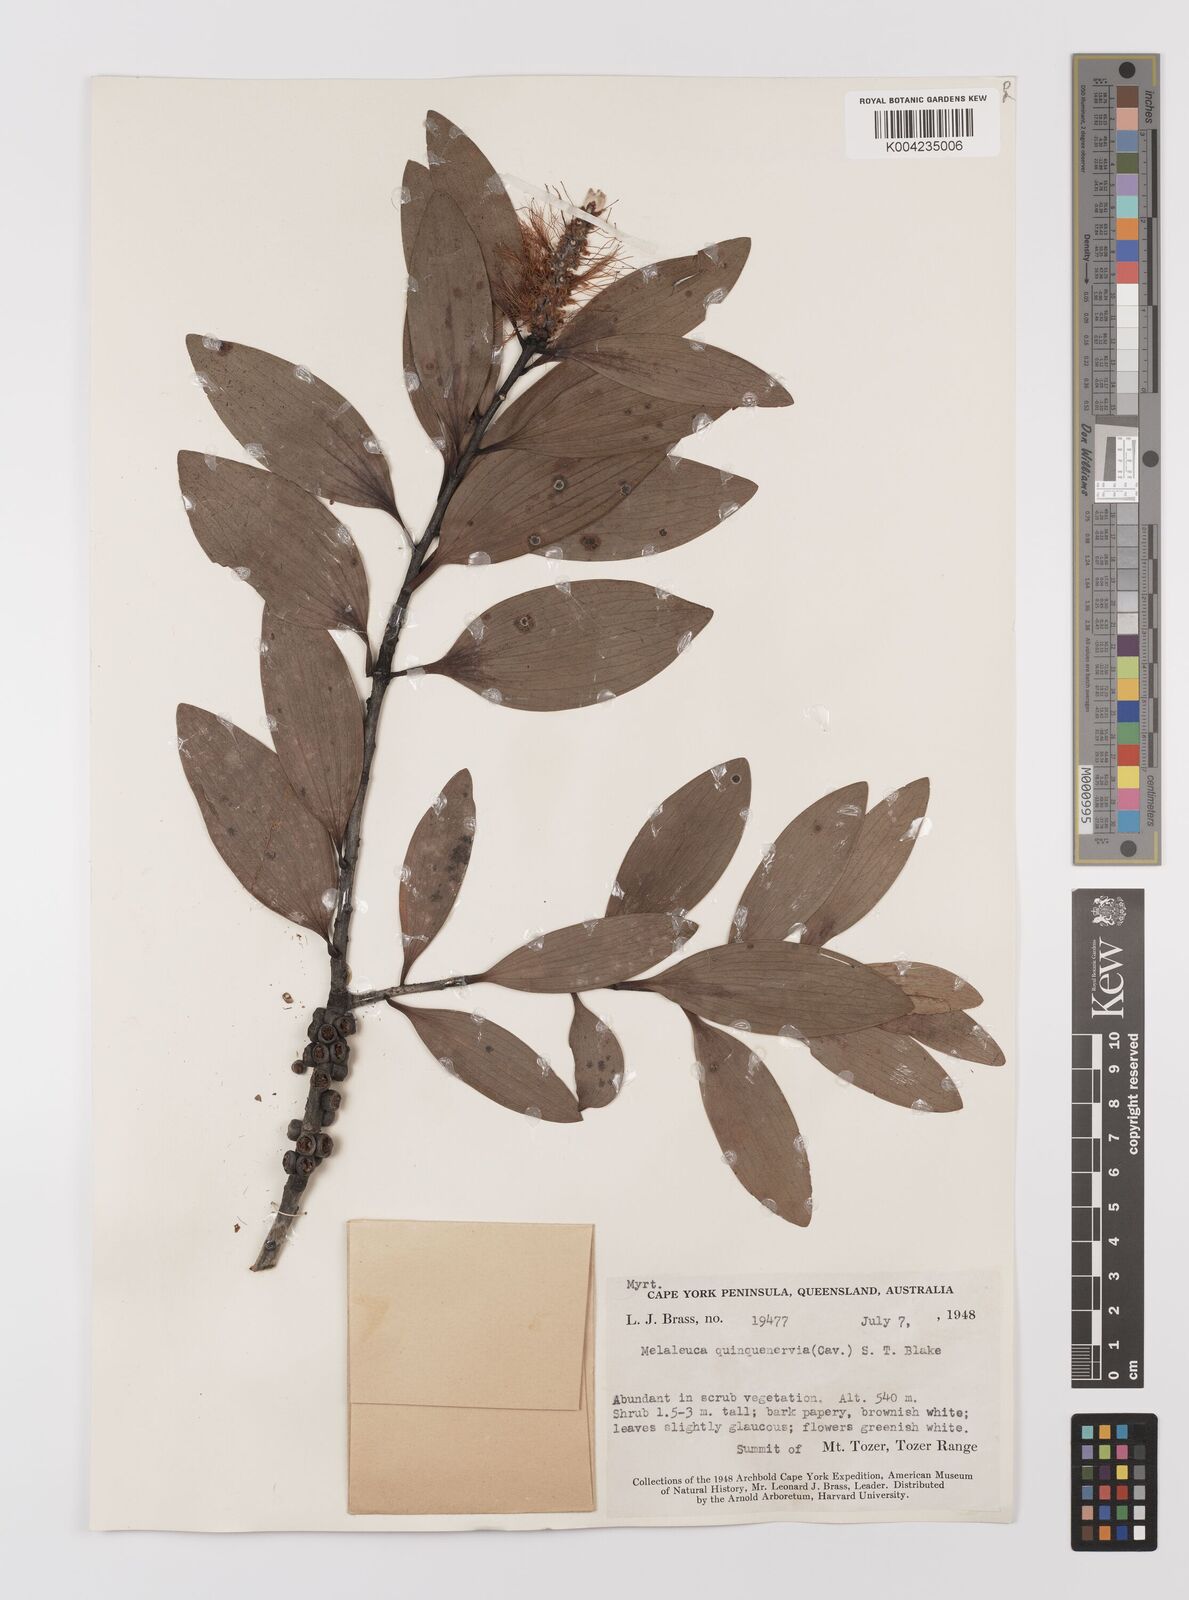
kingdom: Plantae
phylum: Tracheophyta
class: Magnoliopsida
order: Myrtales
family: Myrtaceae
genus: Melaleuca
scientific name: Melaleuca quinquenervia
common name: Punktree
